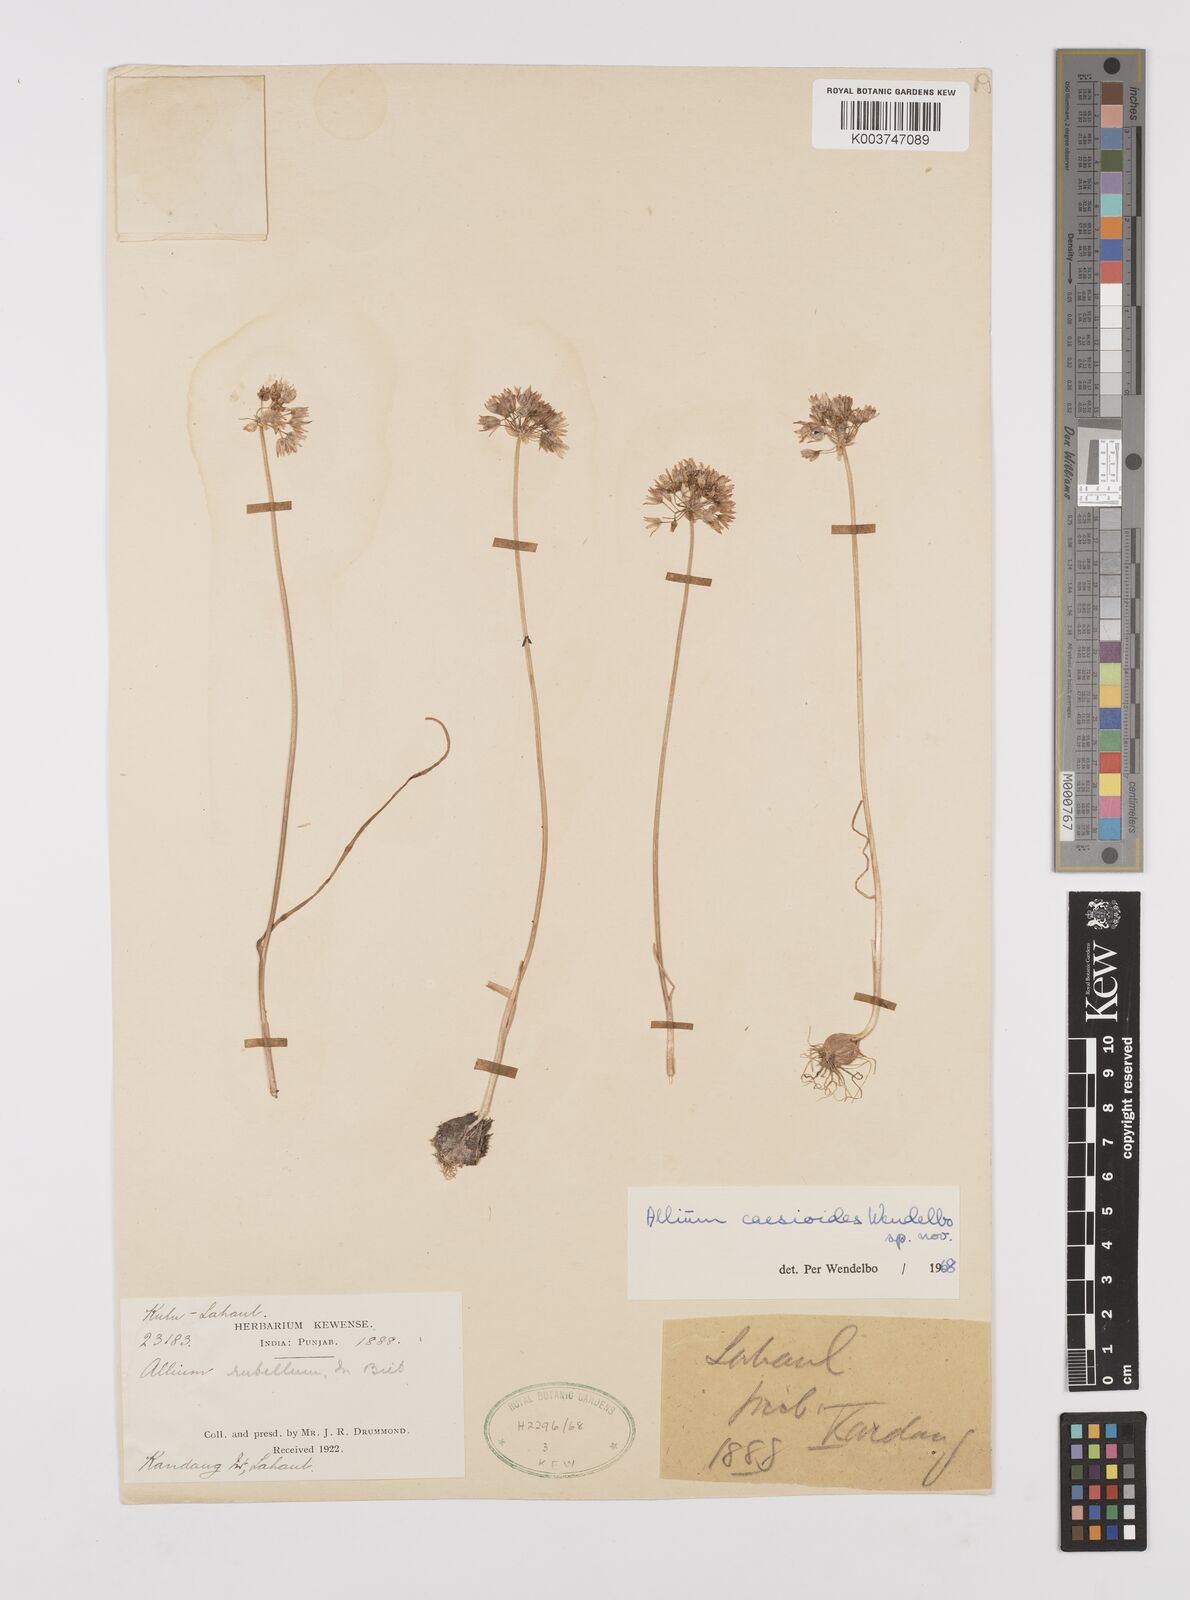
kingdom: Plantae
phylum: Tracheophyta
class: Liliopsida
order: Asparagales
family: Amaryllidaceae
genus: Allium
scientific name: Allium caesioides
